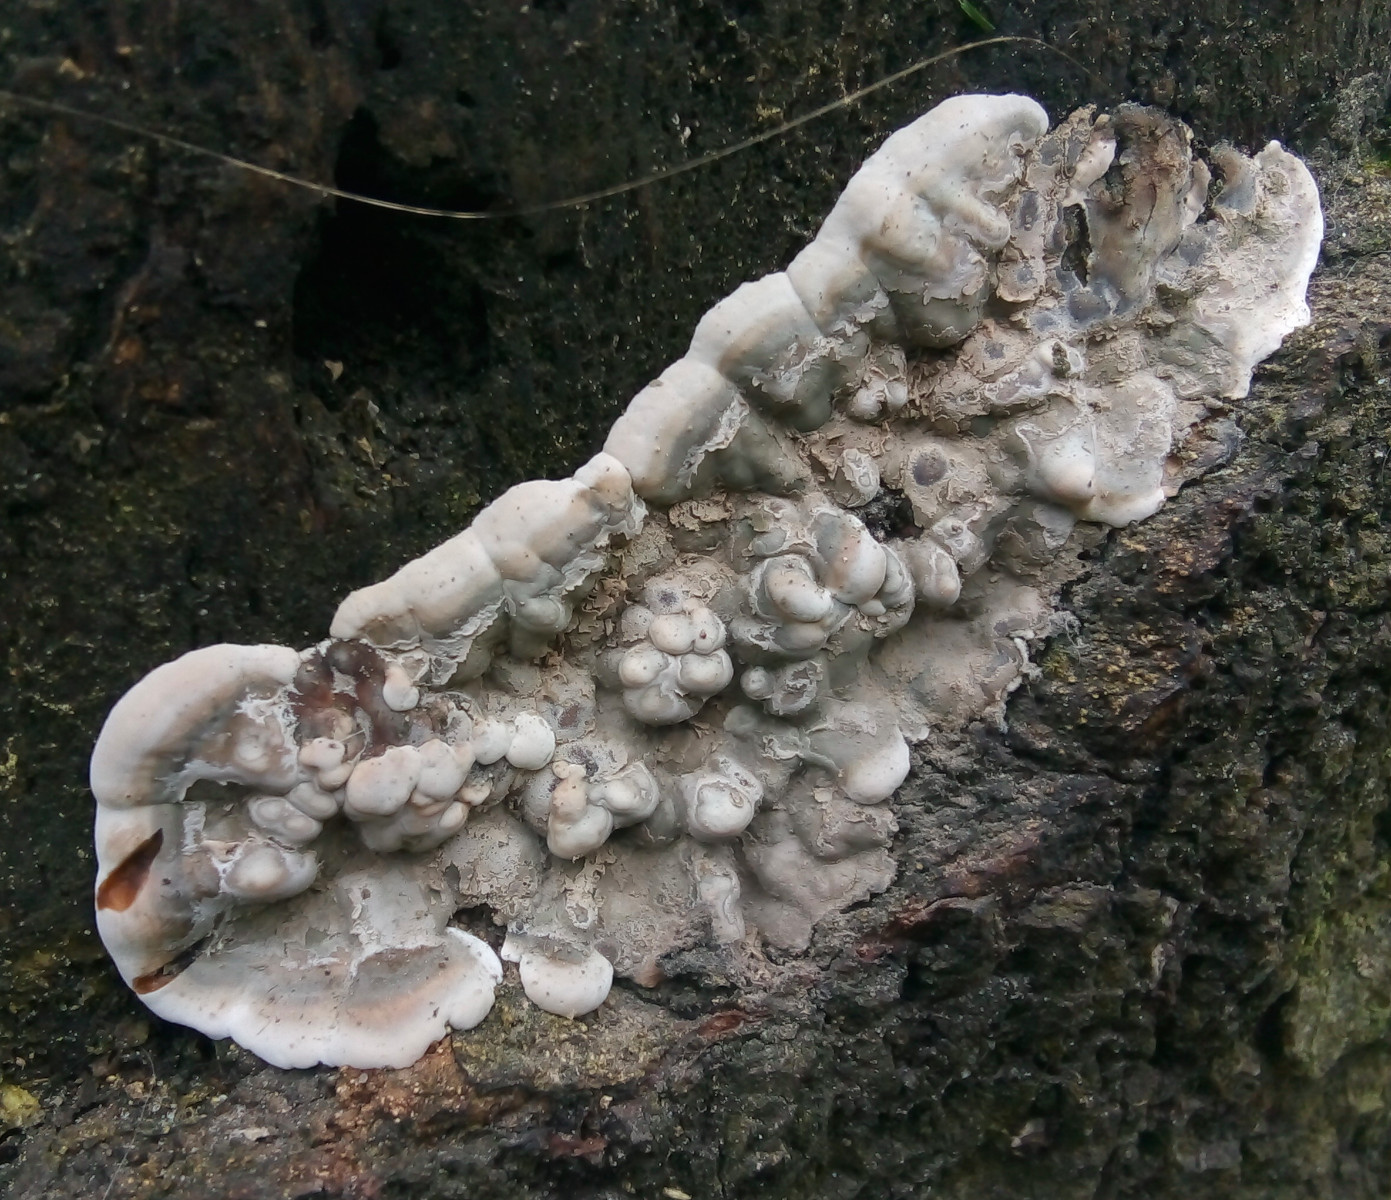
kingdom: Fungi
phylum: Ascomycota
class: Sordariomycetes
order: Xylariales
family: Xylariaceae
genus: Kretzschmaria
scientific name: Kretzschmaria deusta
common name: stor kulsvamp
